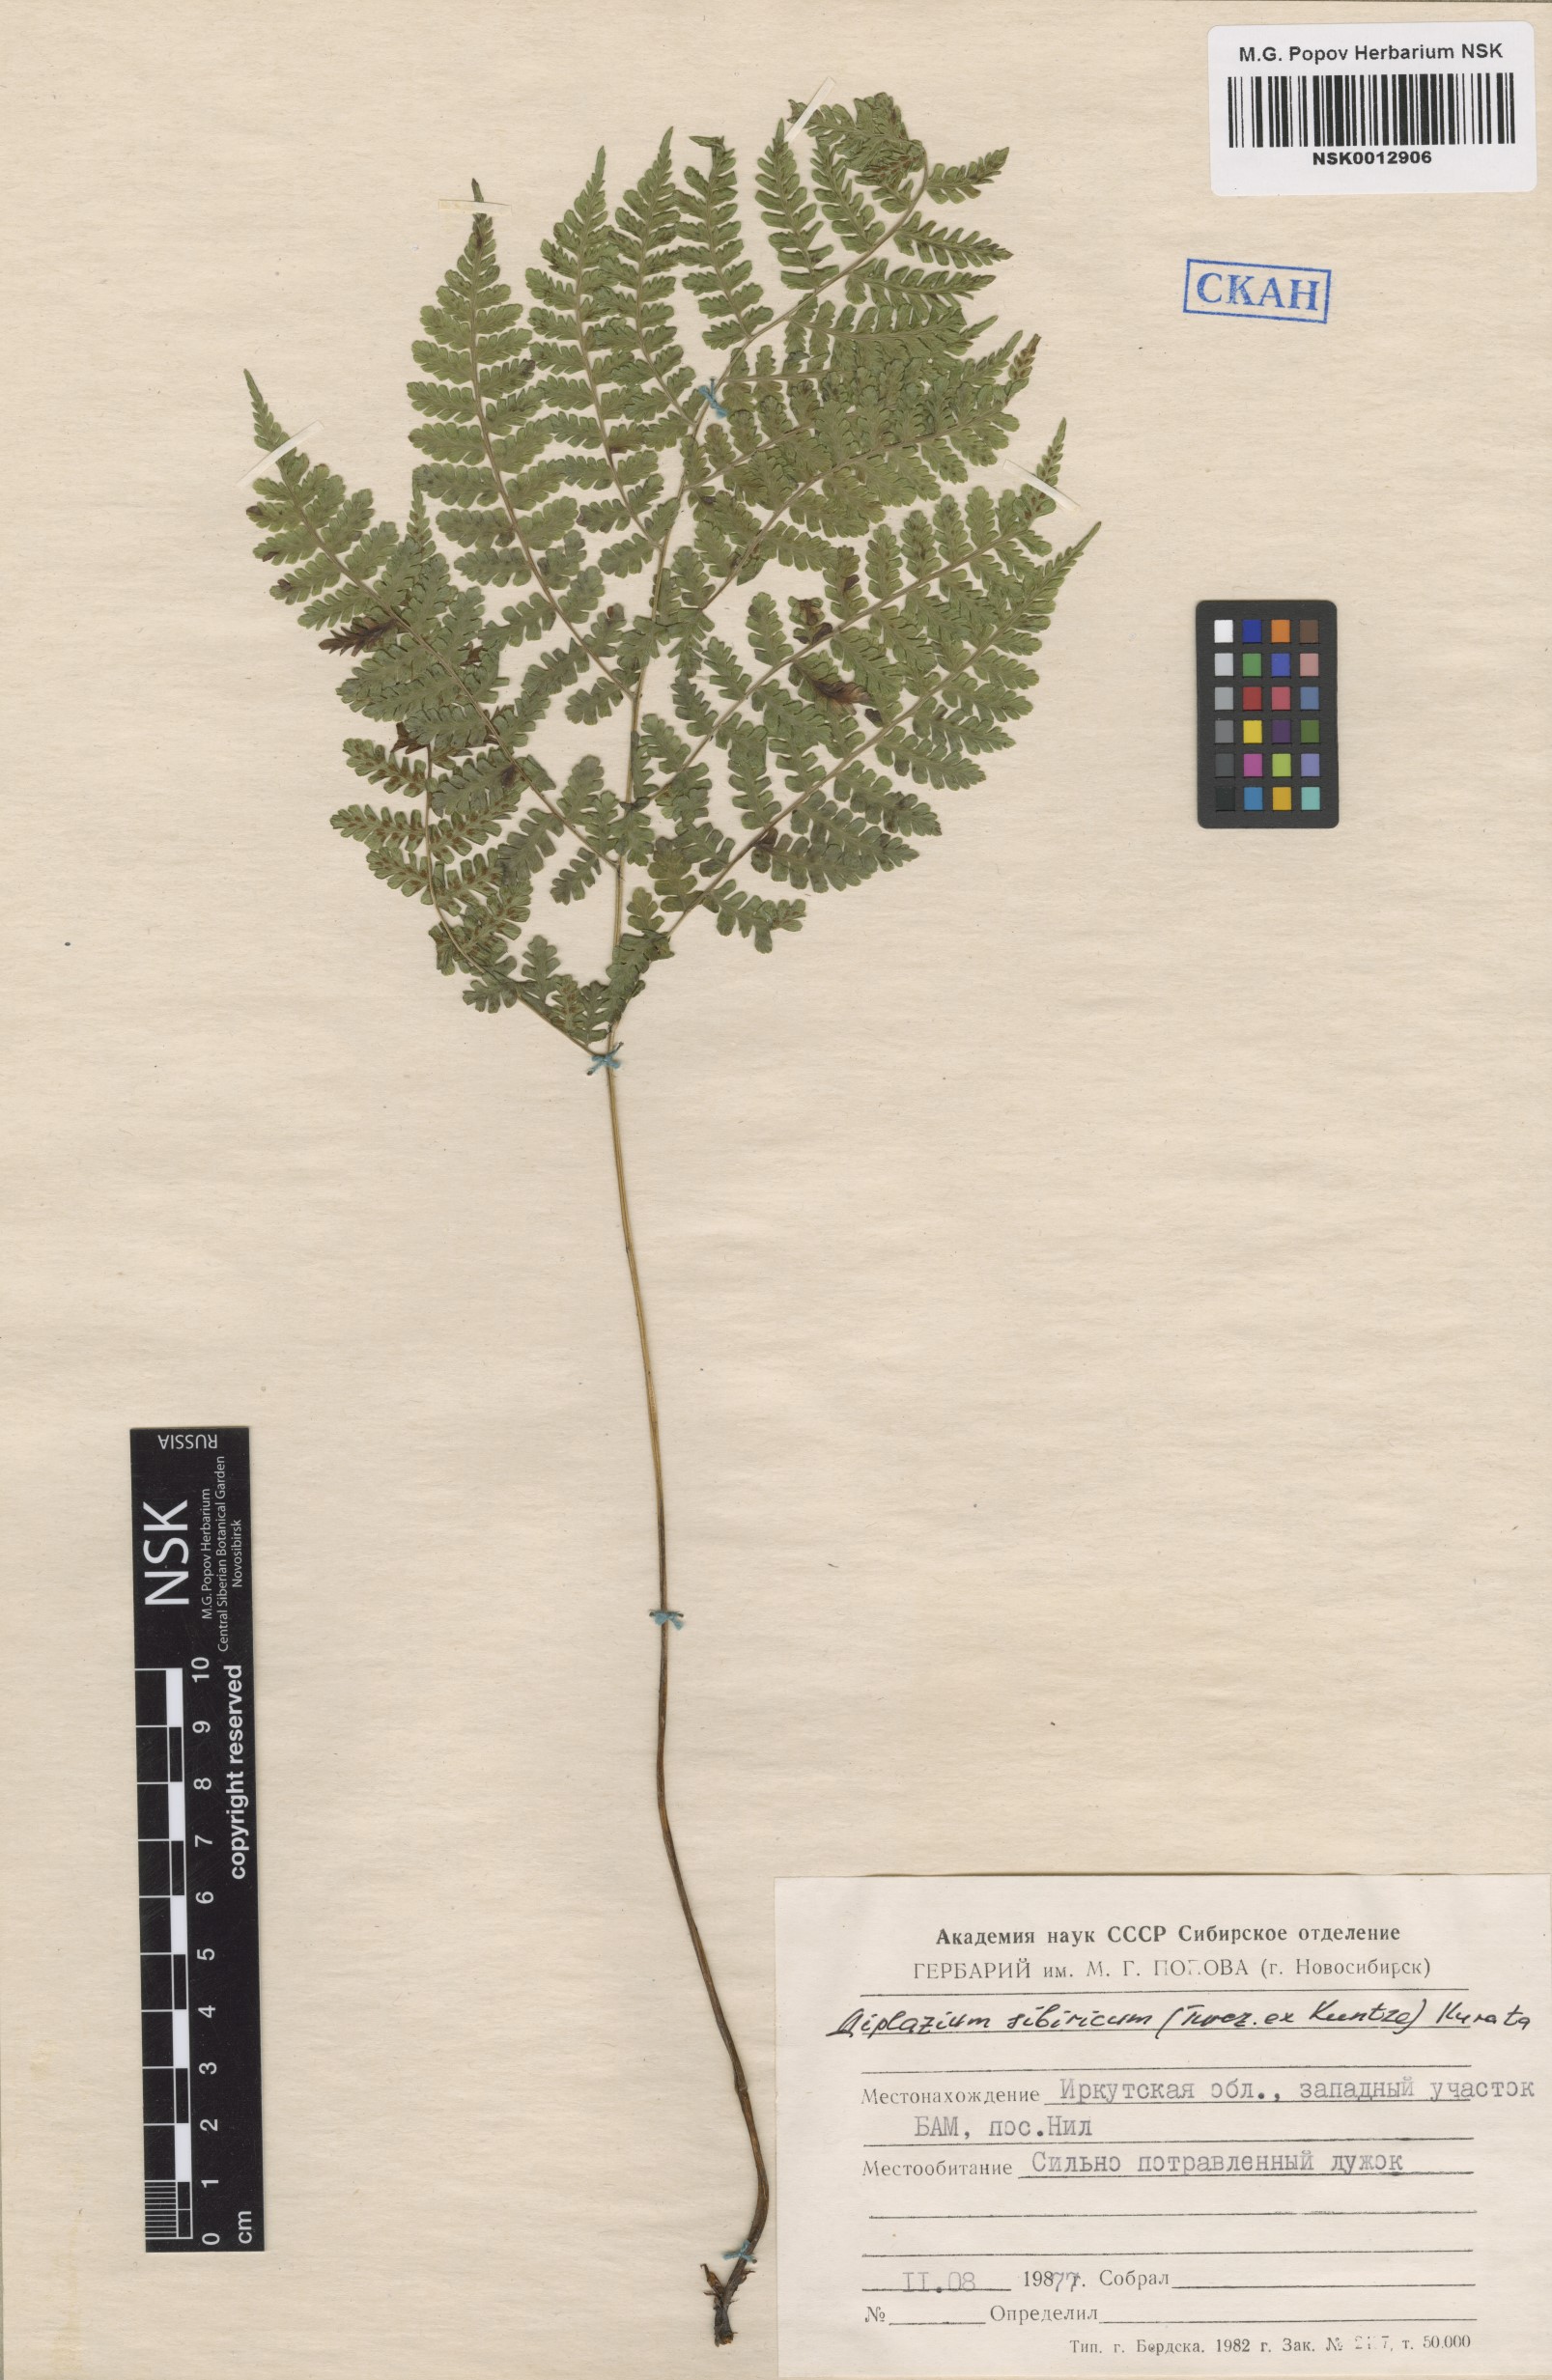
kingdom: Plantae
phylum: Tracheophyta
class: Polypodiopsida
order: Polypodiales
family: Athyriaceae
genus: Diplazium
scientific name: Diplazium sibiricum
